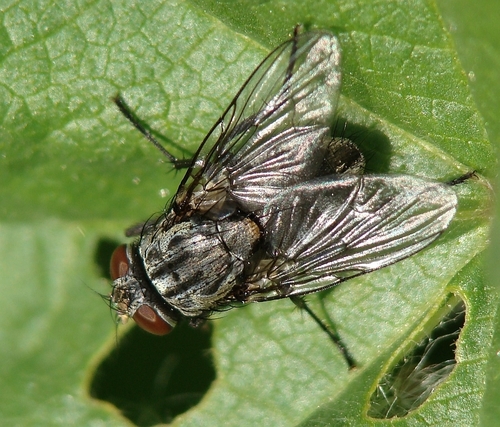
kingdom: Animalia
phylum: Arthropoda
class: Insecta
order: Diptera
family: Muscidae
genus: Muscina
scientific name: Muscina prolapsa
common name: Muscoid fly
